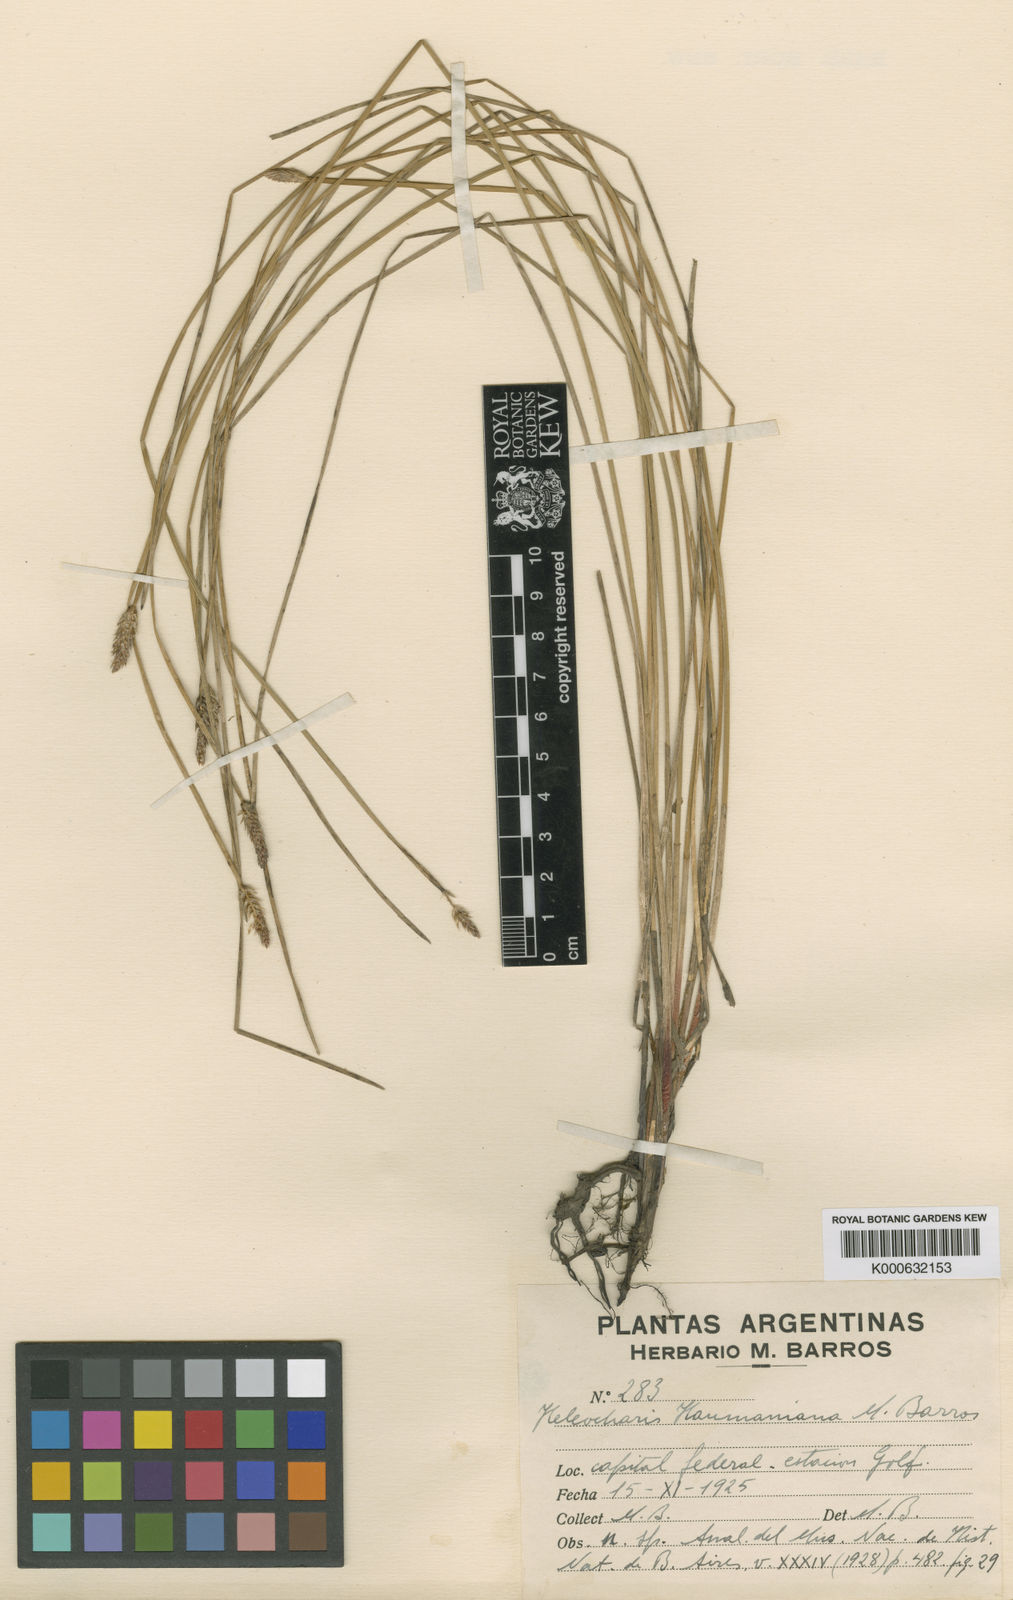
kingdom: Plantae
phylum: Tracheophyta
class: Liliopsida
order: Poales
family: Cyperaceae
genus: Eleocharis
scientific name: Eleocharis haumaniana
